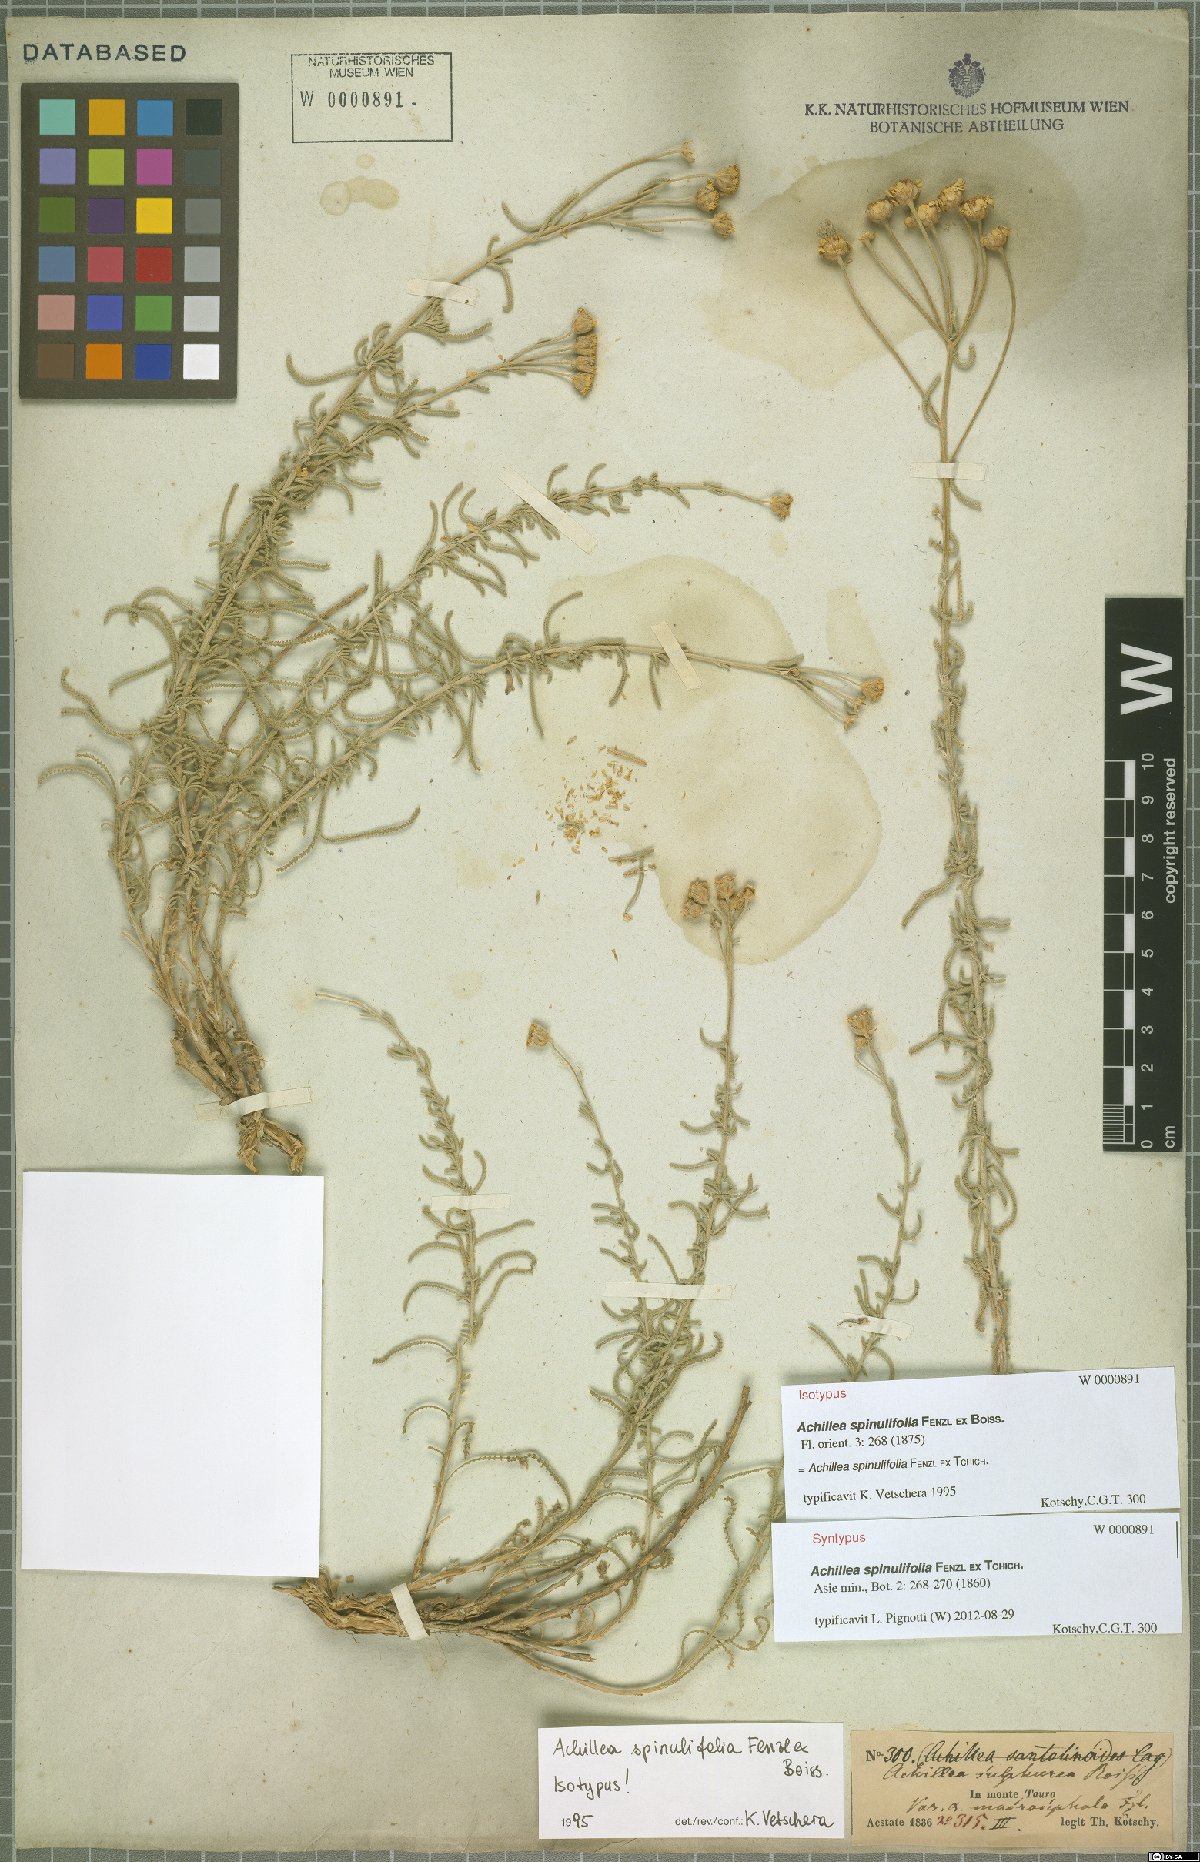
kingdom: Plantae
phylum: Tracheophyta
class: Magnoliopsida
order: Asterales
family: Asteraceae
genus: Achillea
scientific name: Achillea spinulifolia
